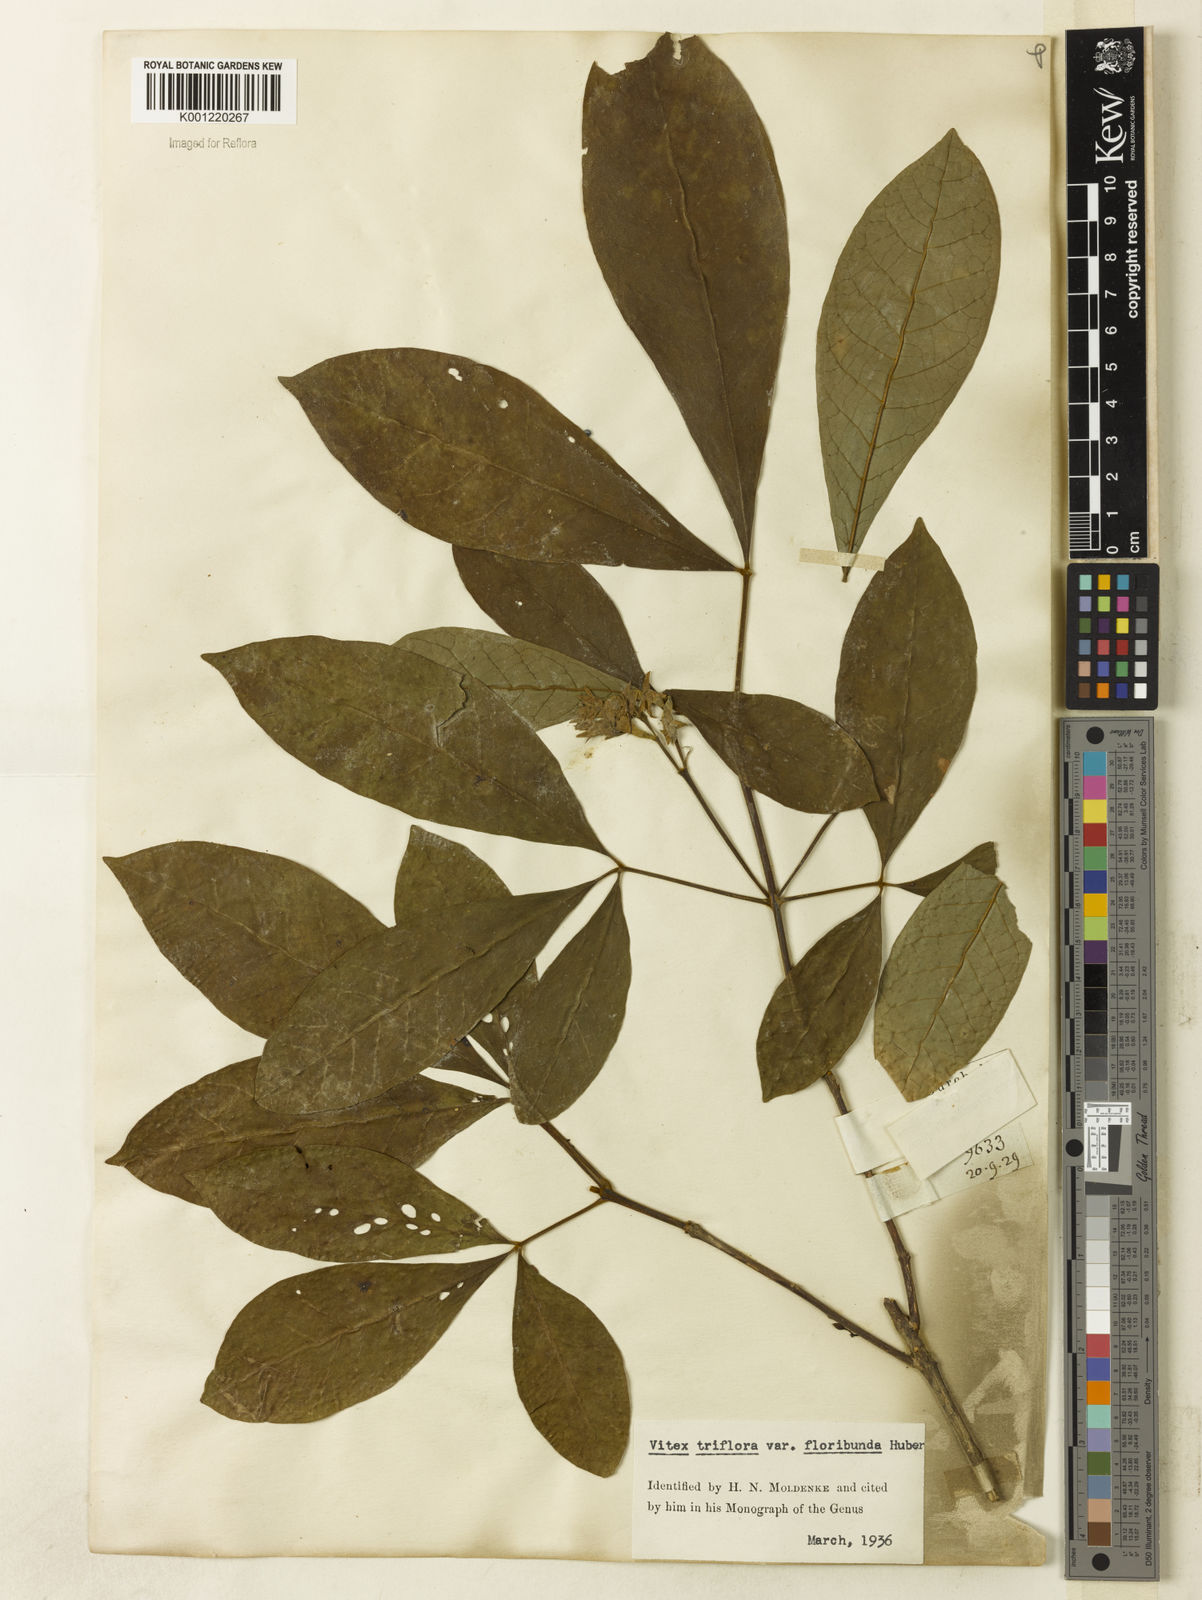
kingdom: Plantae
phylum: Tracheophyta
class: Magnoliopsida
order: Lamiales
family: Lamiaceae
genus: Vitex
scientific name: Vitex triflora
